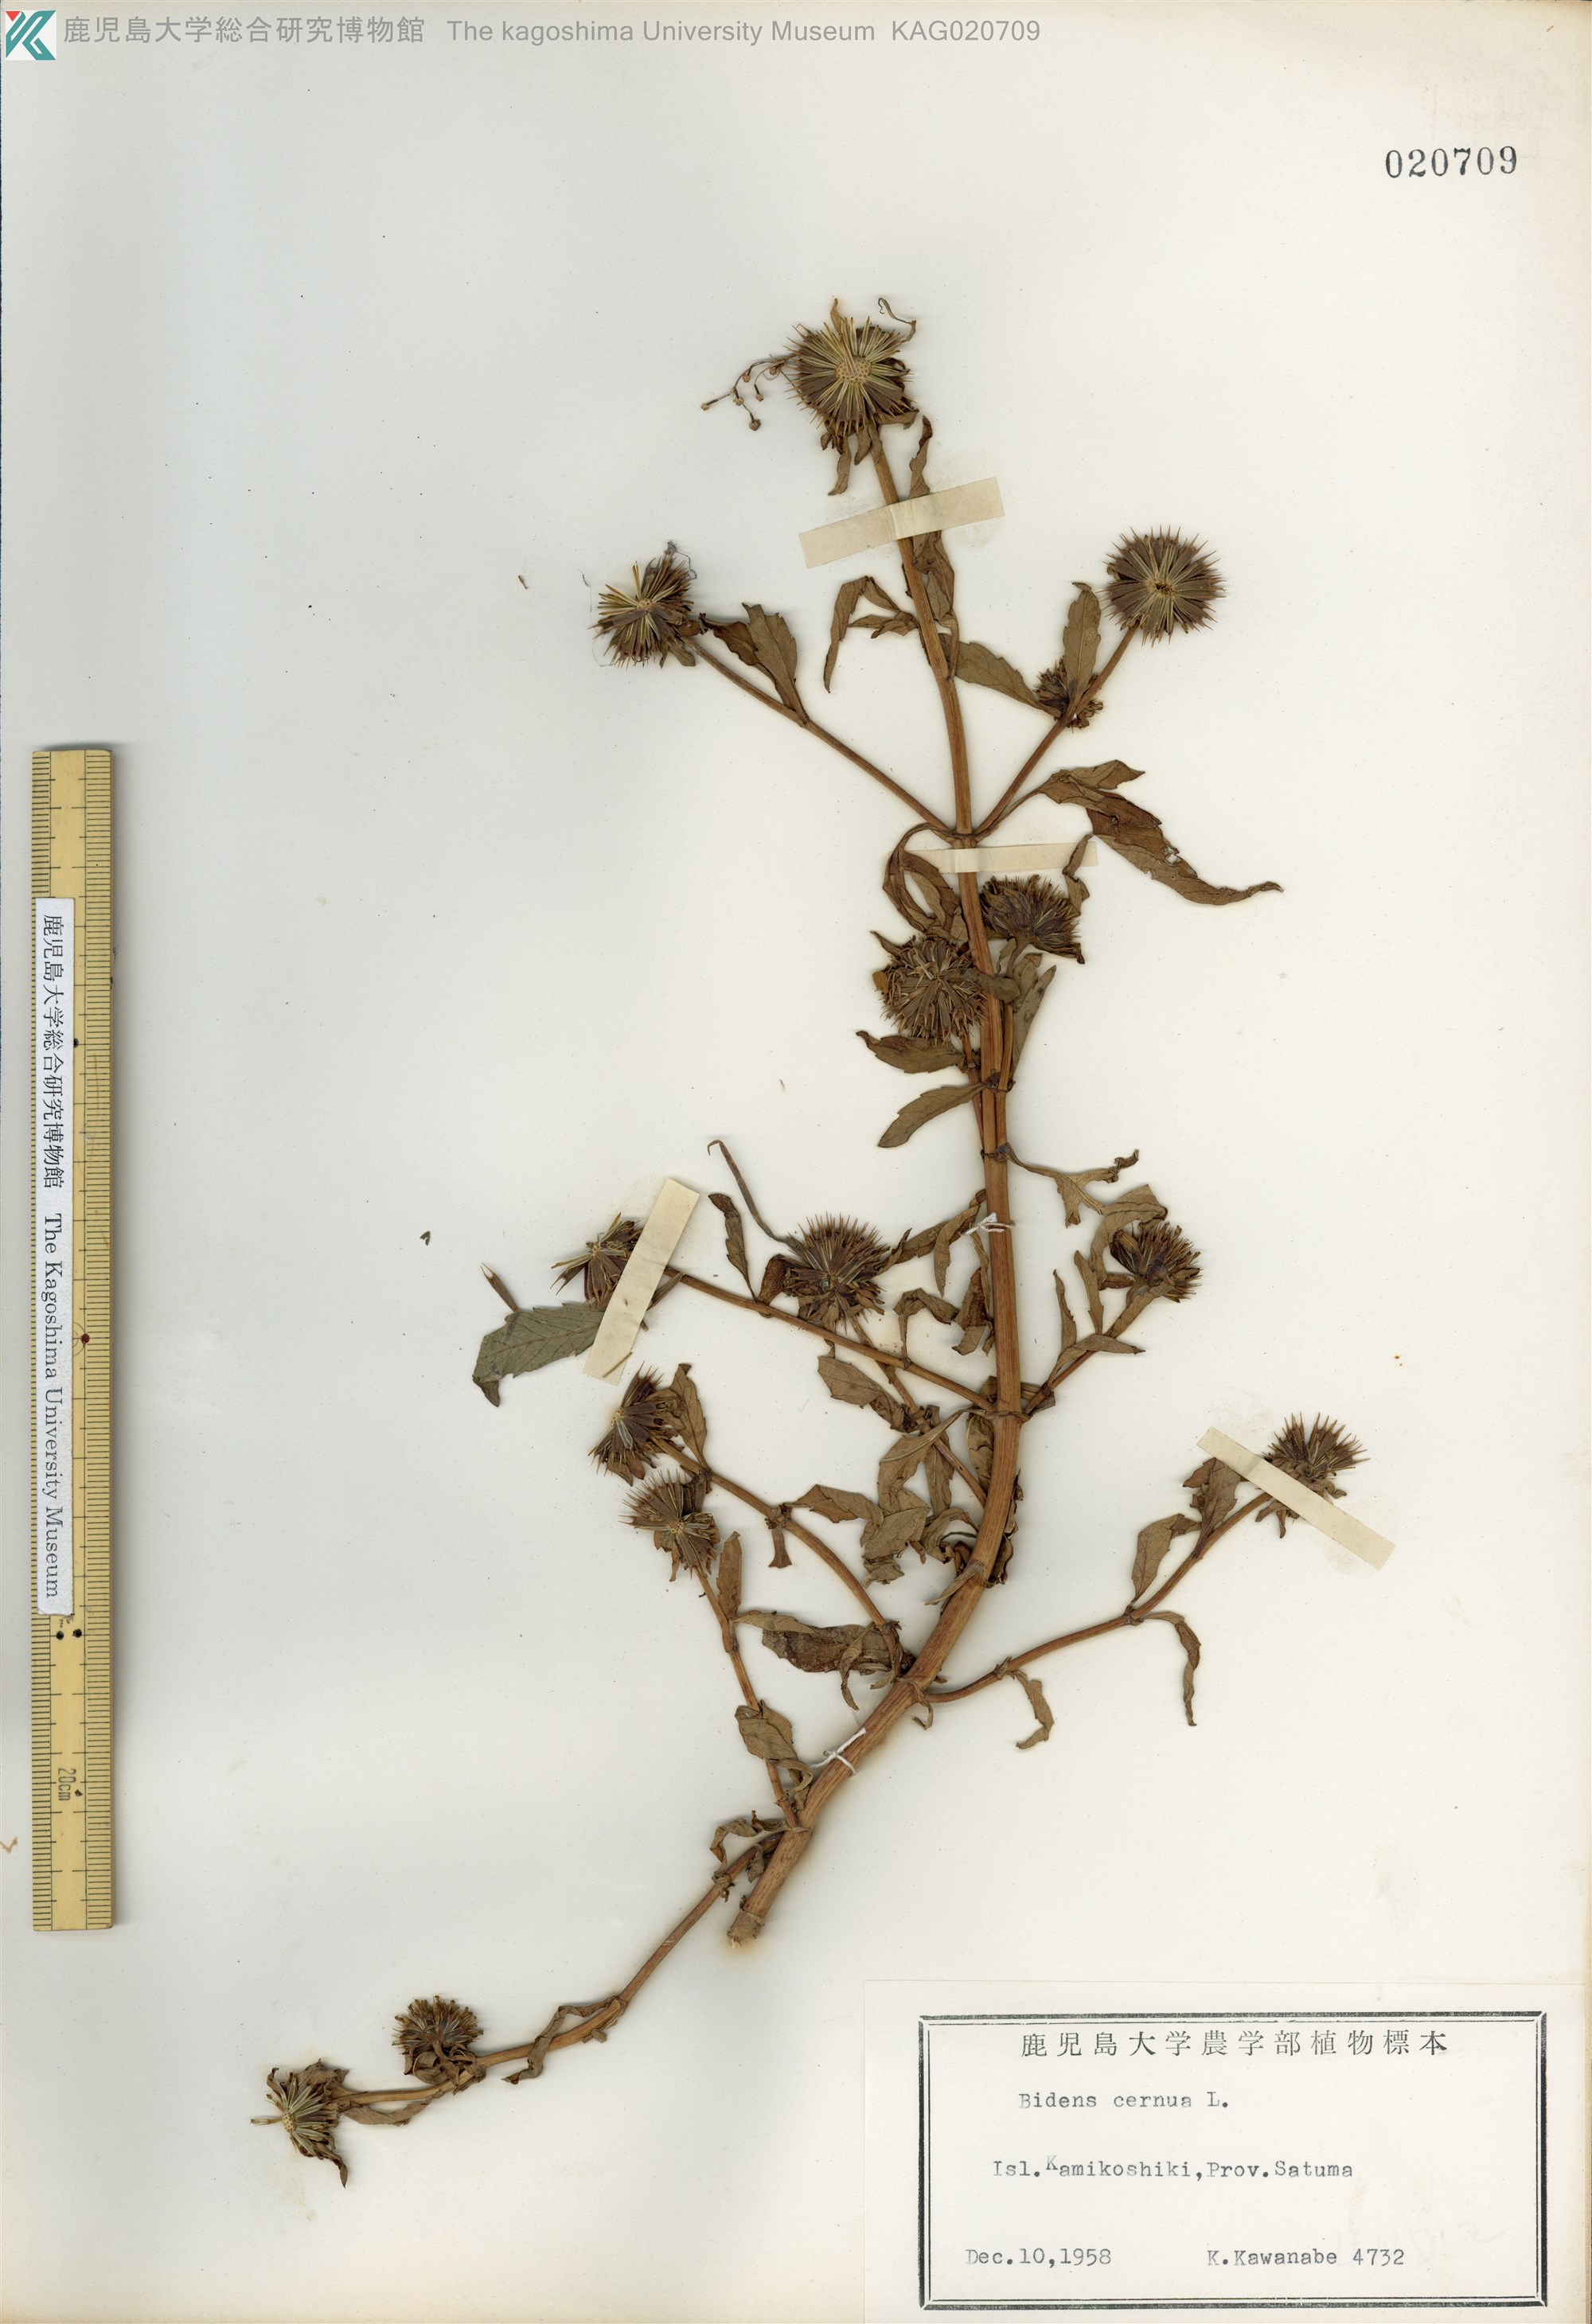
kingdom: Plantae
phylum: Tracheophyta
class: Magnoliopsida
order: Asterales
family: Asteraceae
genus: Bidens
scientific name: Bidens tripartita
